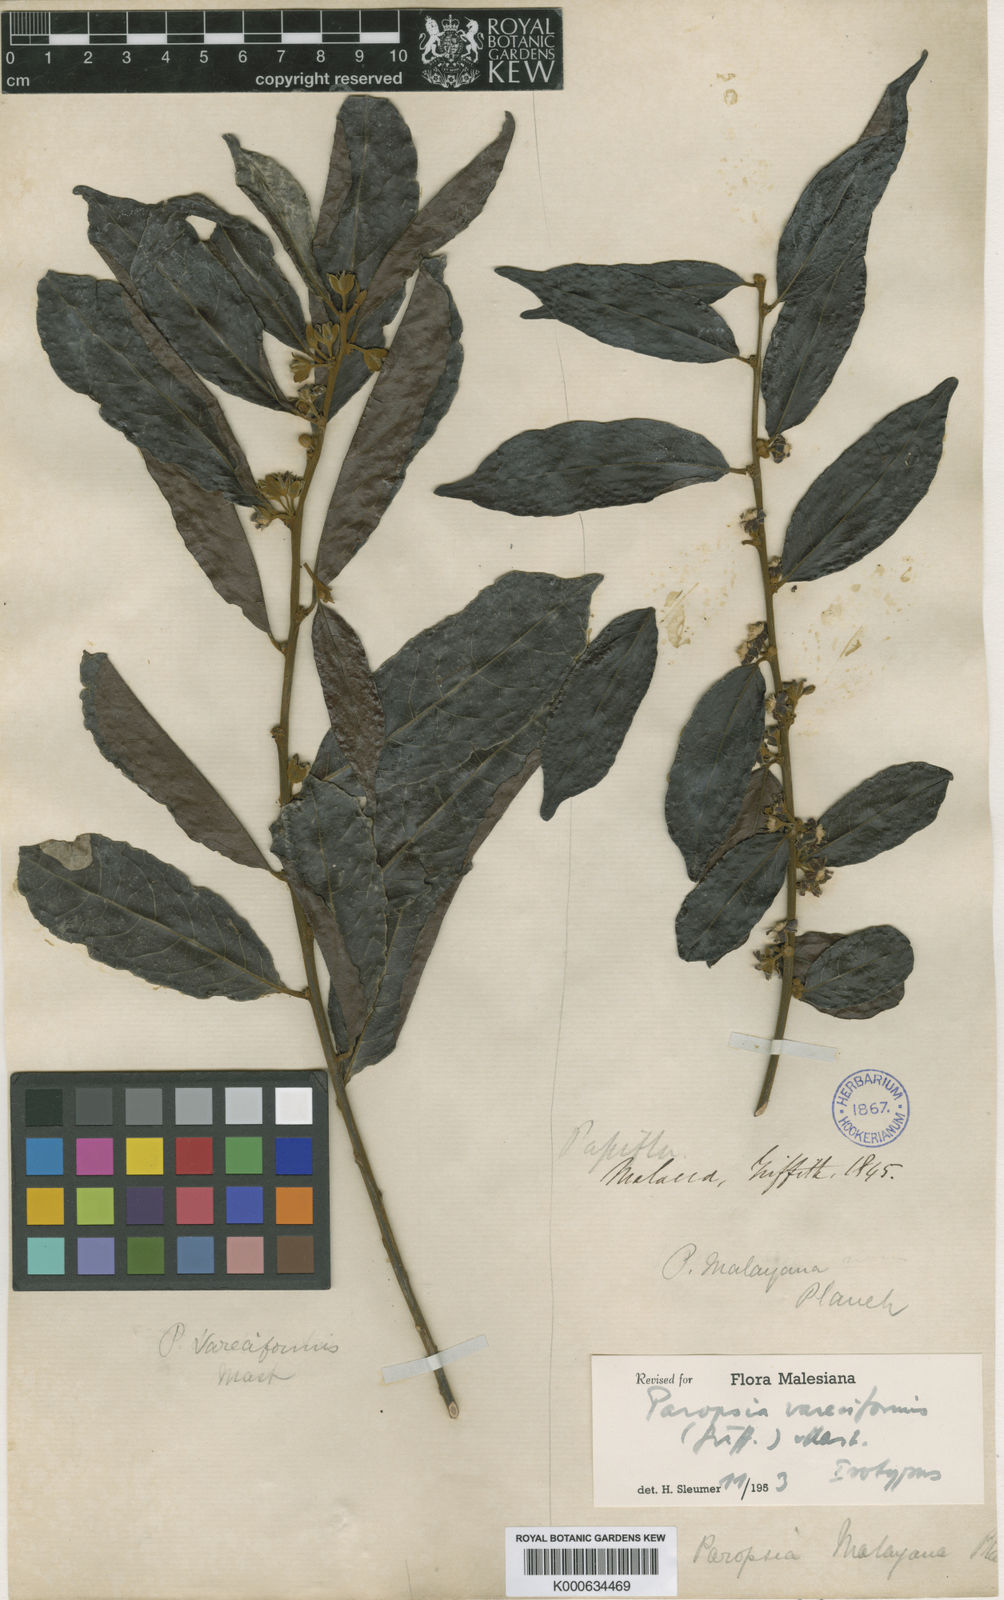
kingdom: Plantae
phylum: Tracheophyta
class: Magnoliopsida
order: Malpighiales
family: Passifloraceae
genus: Paropsia
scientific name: Paropsia vareciformis
